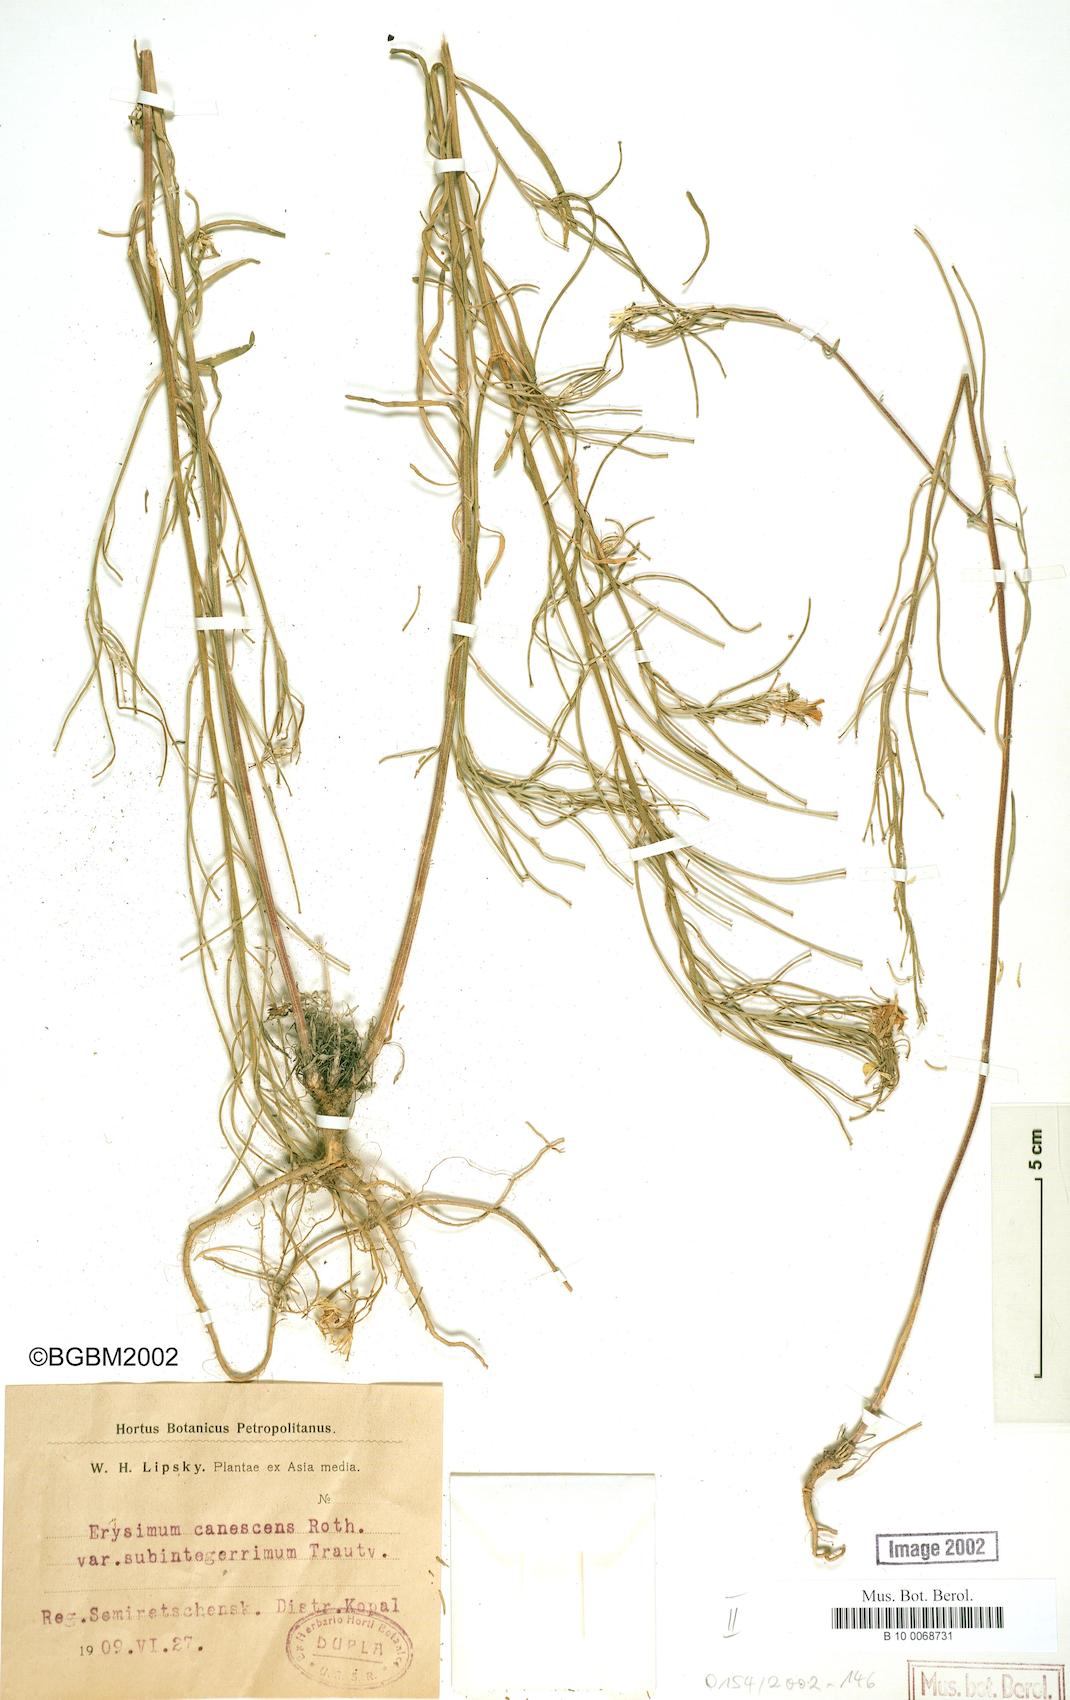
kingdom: Plantae
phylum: Tracheophyta
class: Magnoliopsida
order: Brassicales
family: Brassicaceae
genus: Erysimum
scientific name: Erysimum diffusum
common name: Diffuse wallflower
